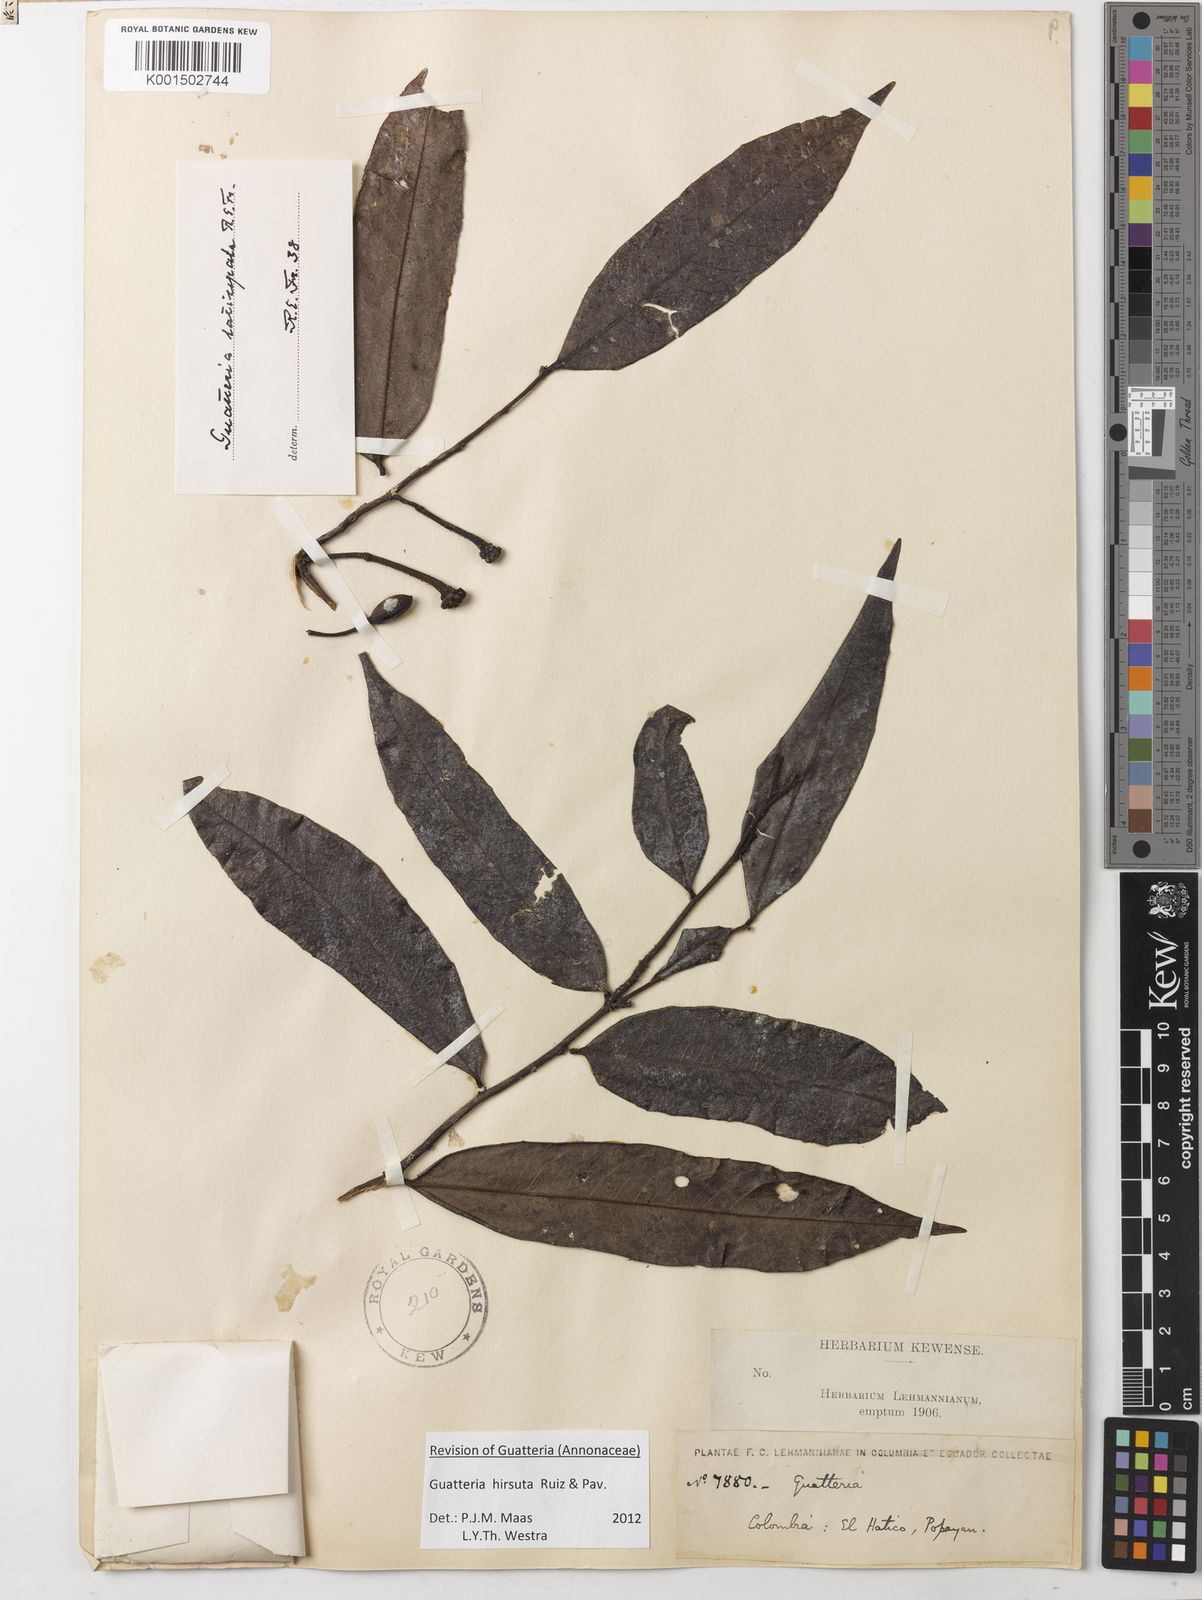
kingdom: Plantae
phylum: Tracheophyta
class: Magnoliopsida
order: Magnoliales
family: Annonaceae
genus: Guatteria
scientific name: Guatteria hirsuta
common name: Laurel
